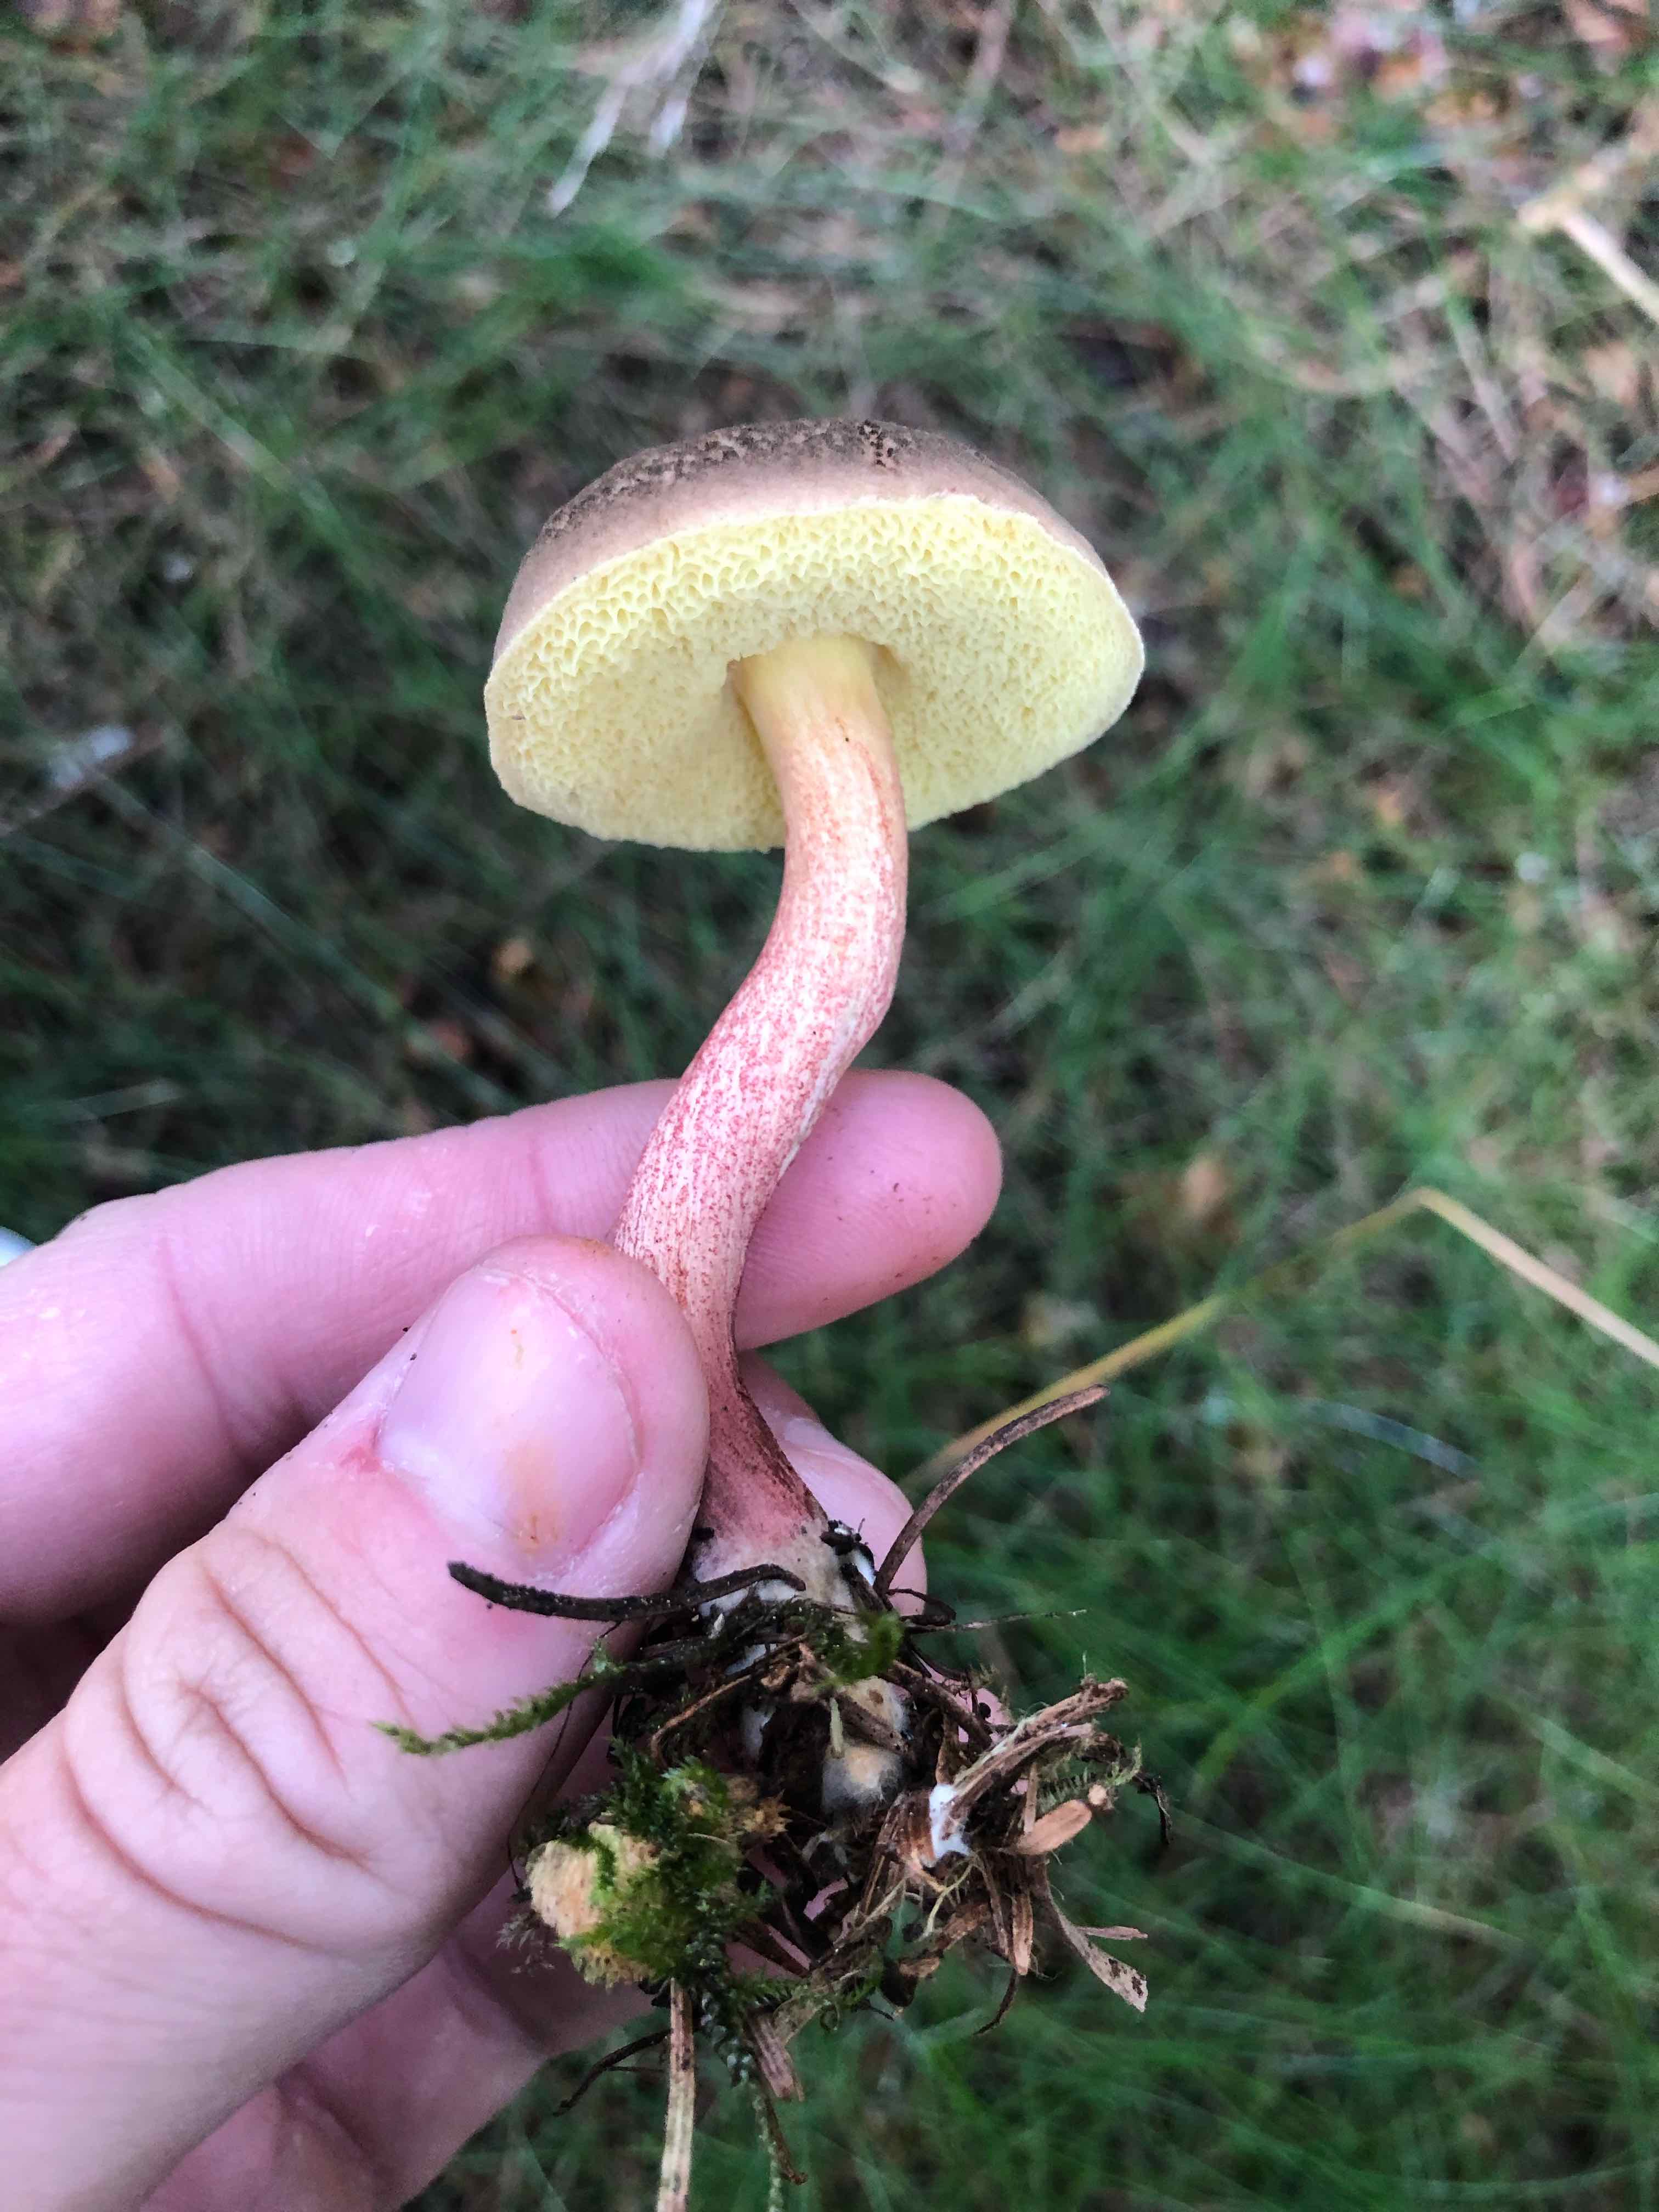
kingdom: Fungi
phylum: Basidiomycota
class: Agaricomycetes
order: Boletales
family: Boletaceae
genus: Xerocomellus
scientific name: Xerocomellus
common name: dværgrørhat
